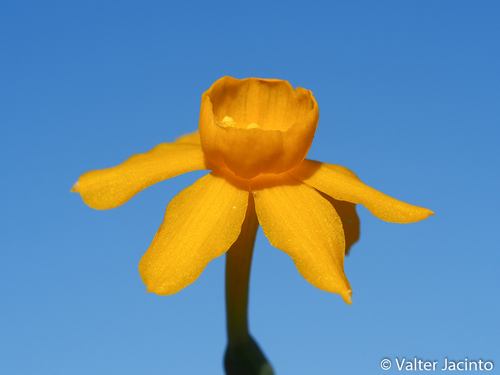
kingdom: Plantae
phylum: Tracheophyta
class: Liliopsida
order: Asparagales
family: Amaryllidaceae
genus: Narcissus
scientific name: Narcissus calcicola
